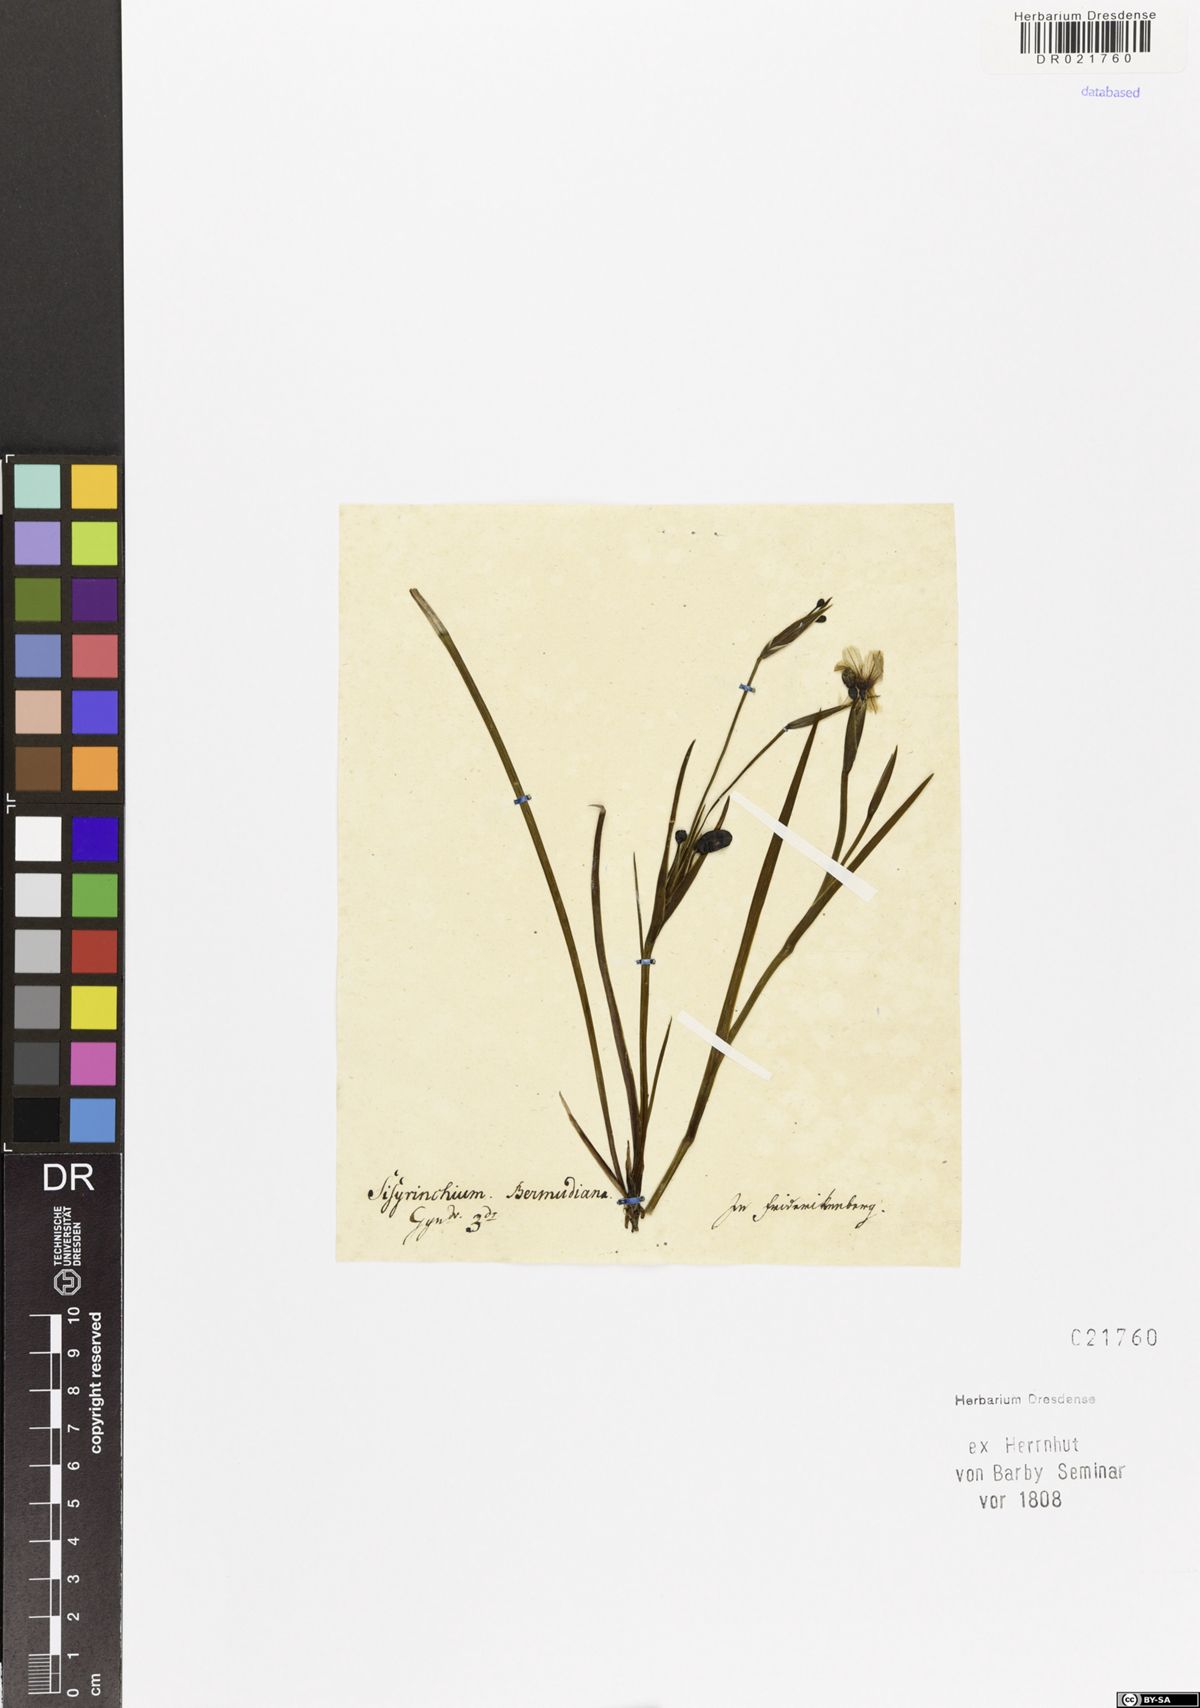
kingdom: Plantae
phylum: Tracheophyta
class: Liliopsida
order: Asparagales
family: Iridaceae
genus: Sisyrinchium
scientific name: Sisyrinchium bermudiana
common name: Blue-eyed-grass
